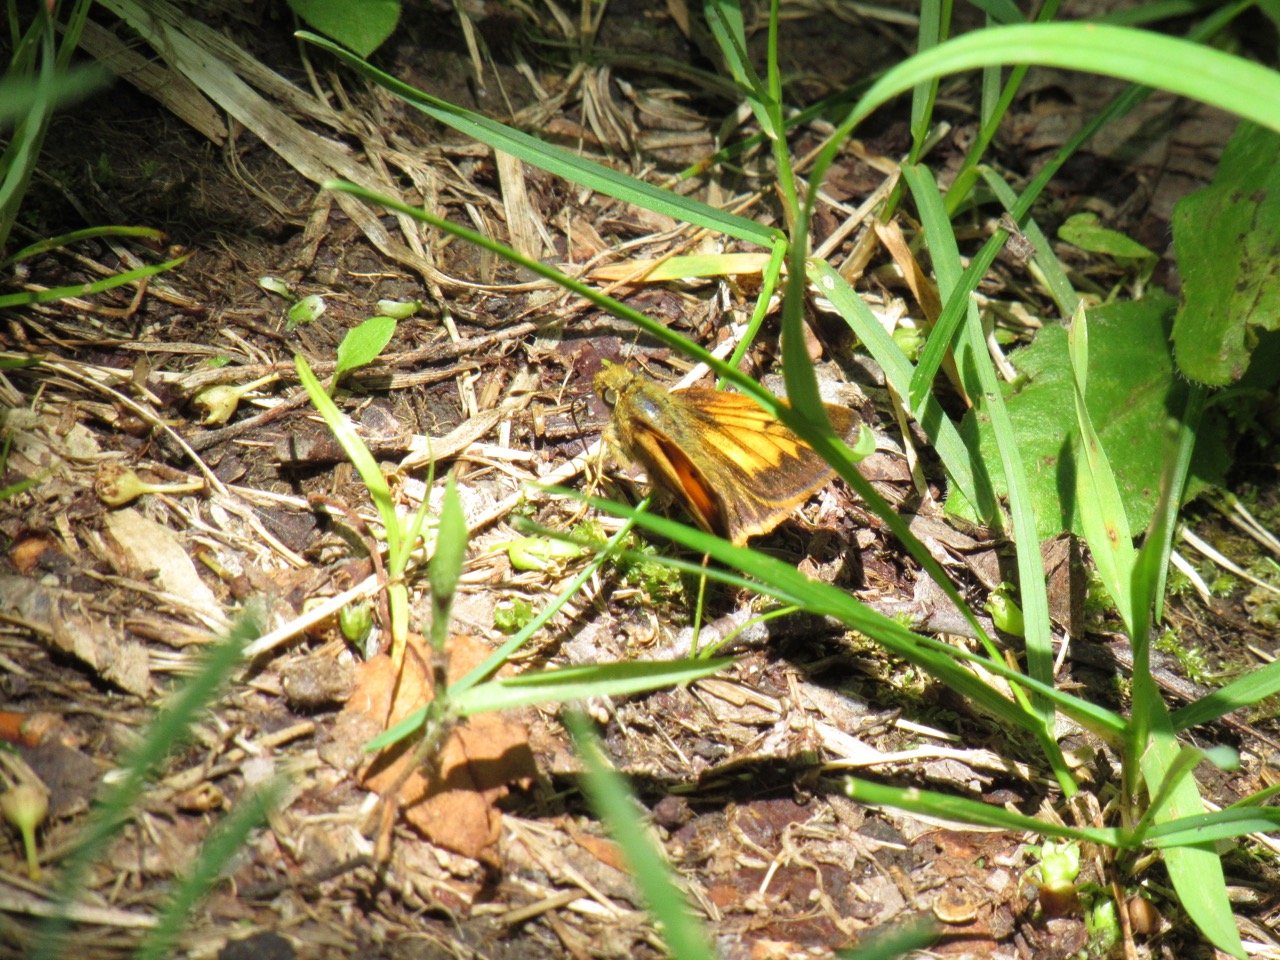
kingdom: Animalia
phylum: Arthropoda
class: Insecta
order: Lepidoptera
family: Hesperiidae
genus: Lon
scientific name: Lon hobomok
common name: Hobomok Skipper
